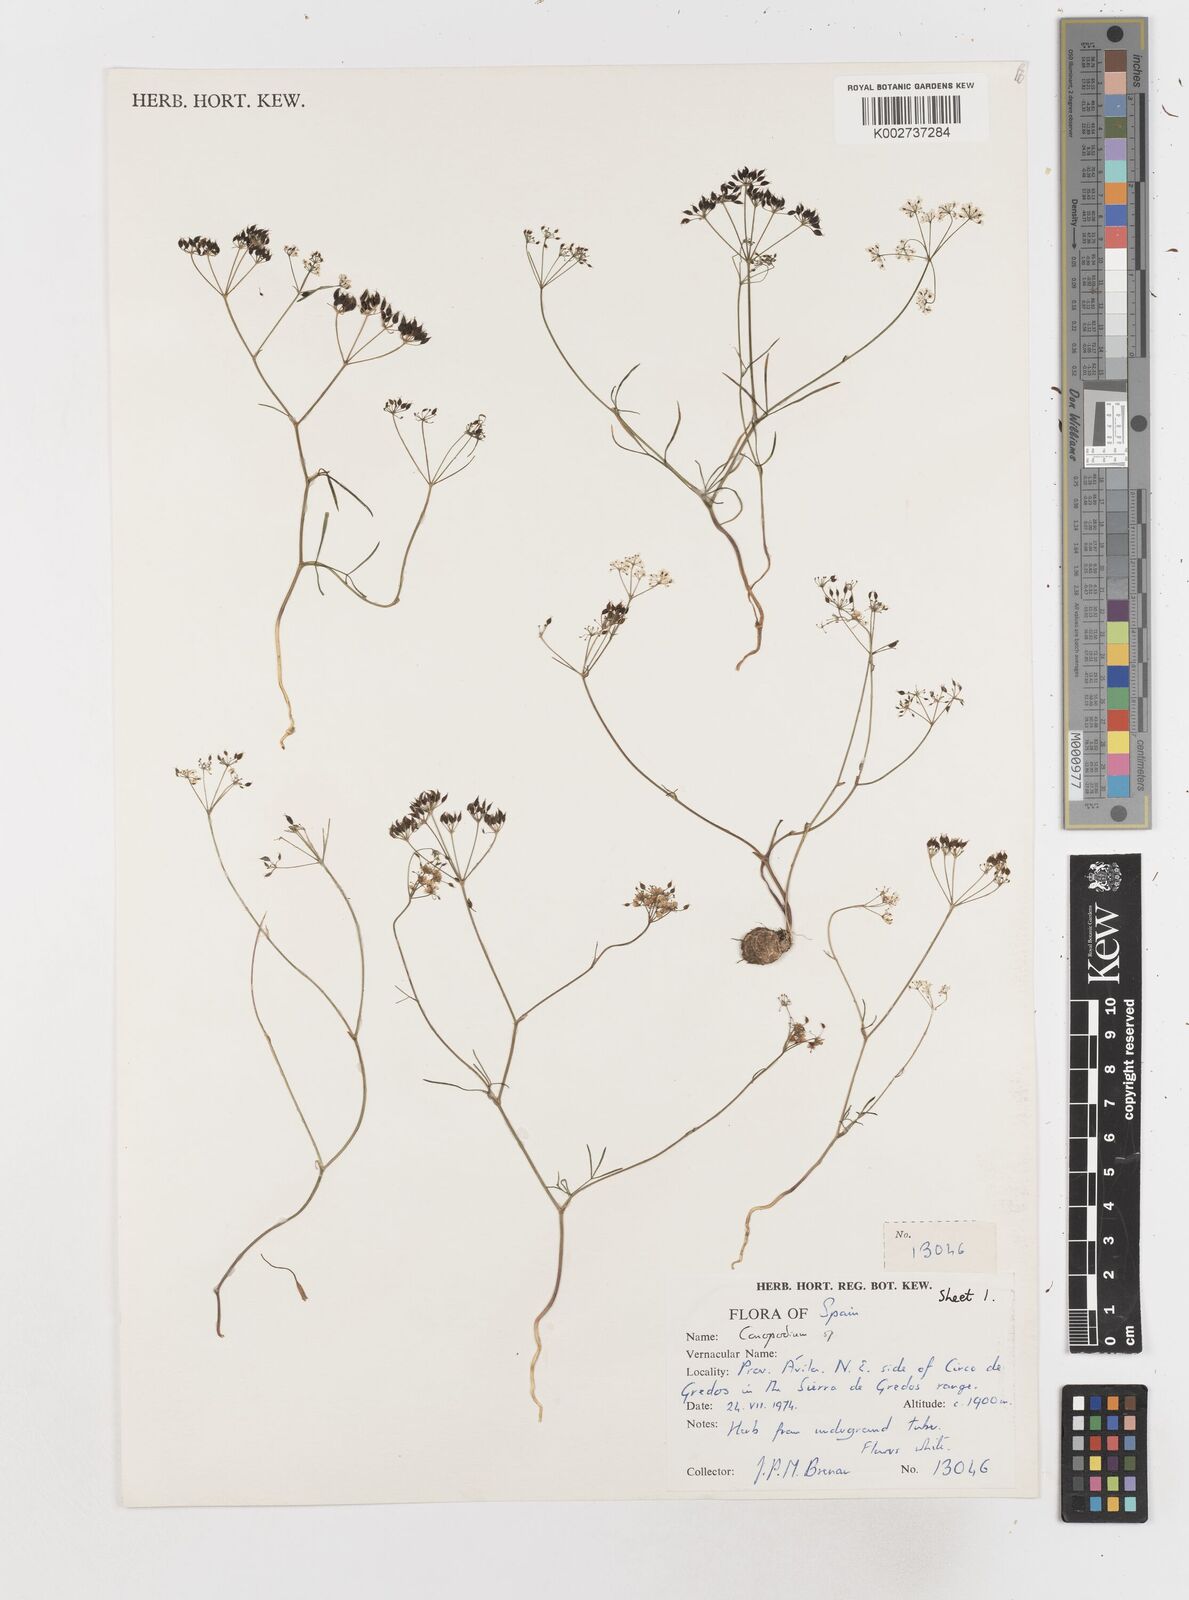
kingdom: Plantae
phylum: Tracheophyta
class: Magnoliopsida
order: Apiales
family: Apiaceae
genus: Conopodium
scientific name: Conopodium
